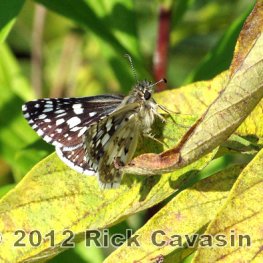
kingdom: Animalia
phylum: Arthropoda
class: Insecta
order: Lepidoptera
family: Hesperiidae
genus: Pyrgus
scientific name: Pyrgus communis
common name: Common Checkered-Skipper
